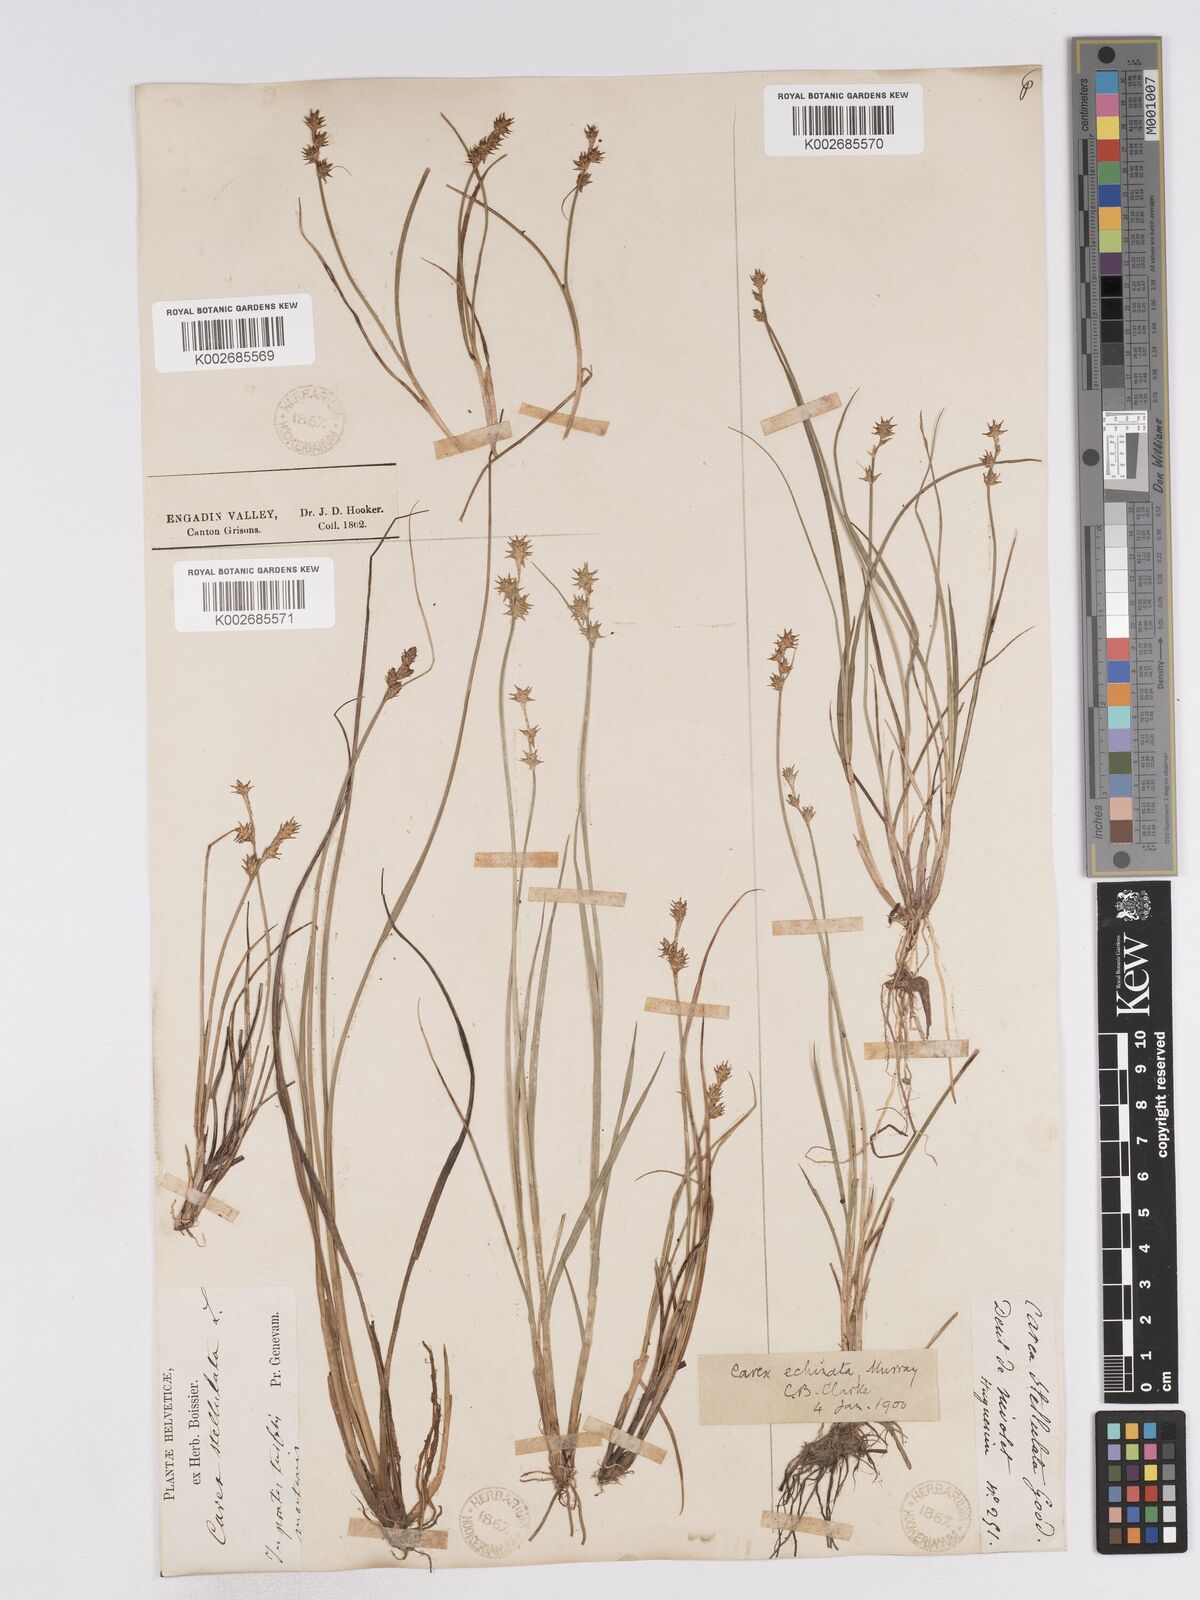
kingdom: Plantae
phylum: Tracheophyta
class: Liliopsida
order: Poales
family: Cyperaceae
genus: Carex
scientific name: Carex echinata
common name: Star sedge
